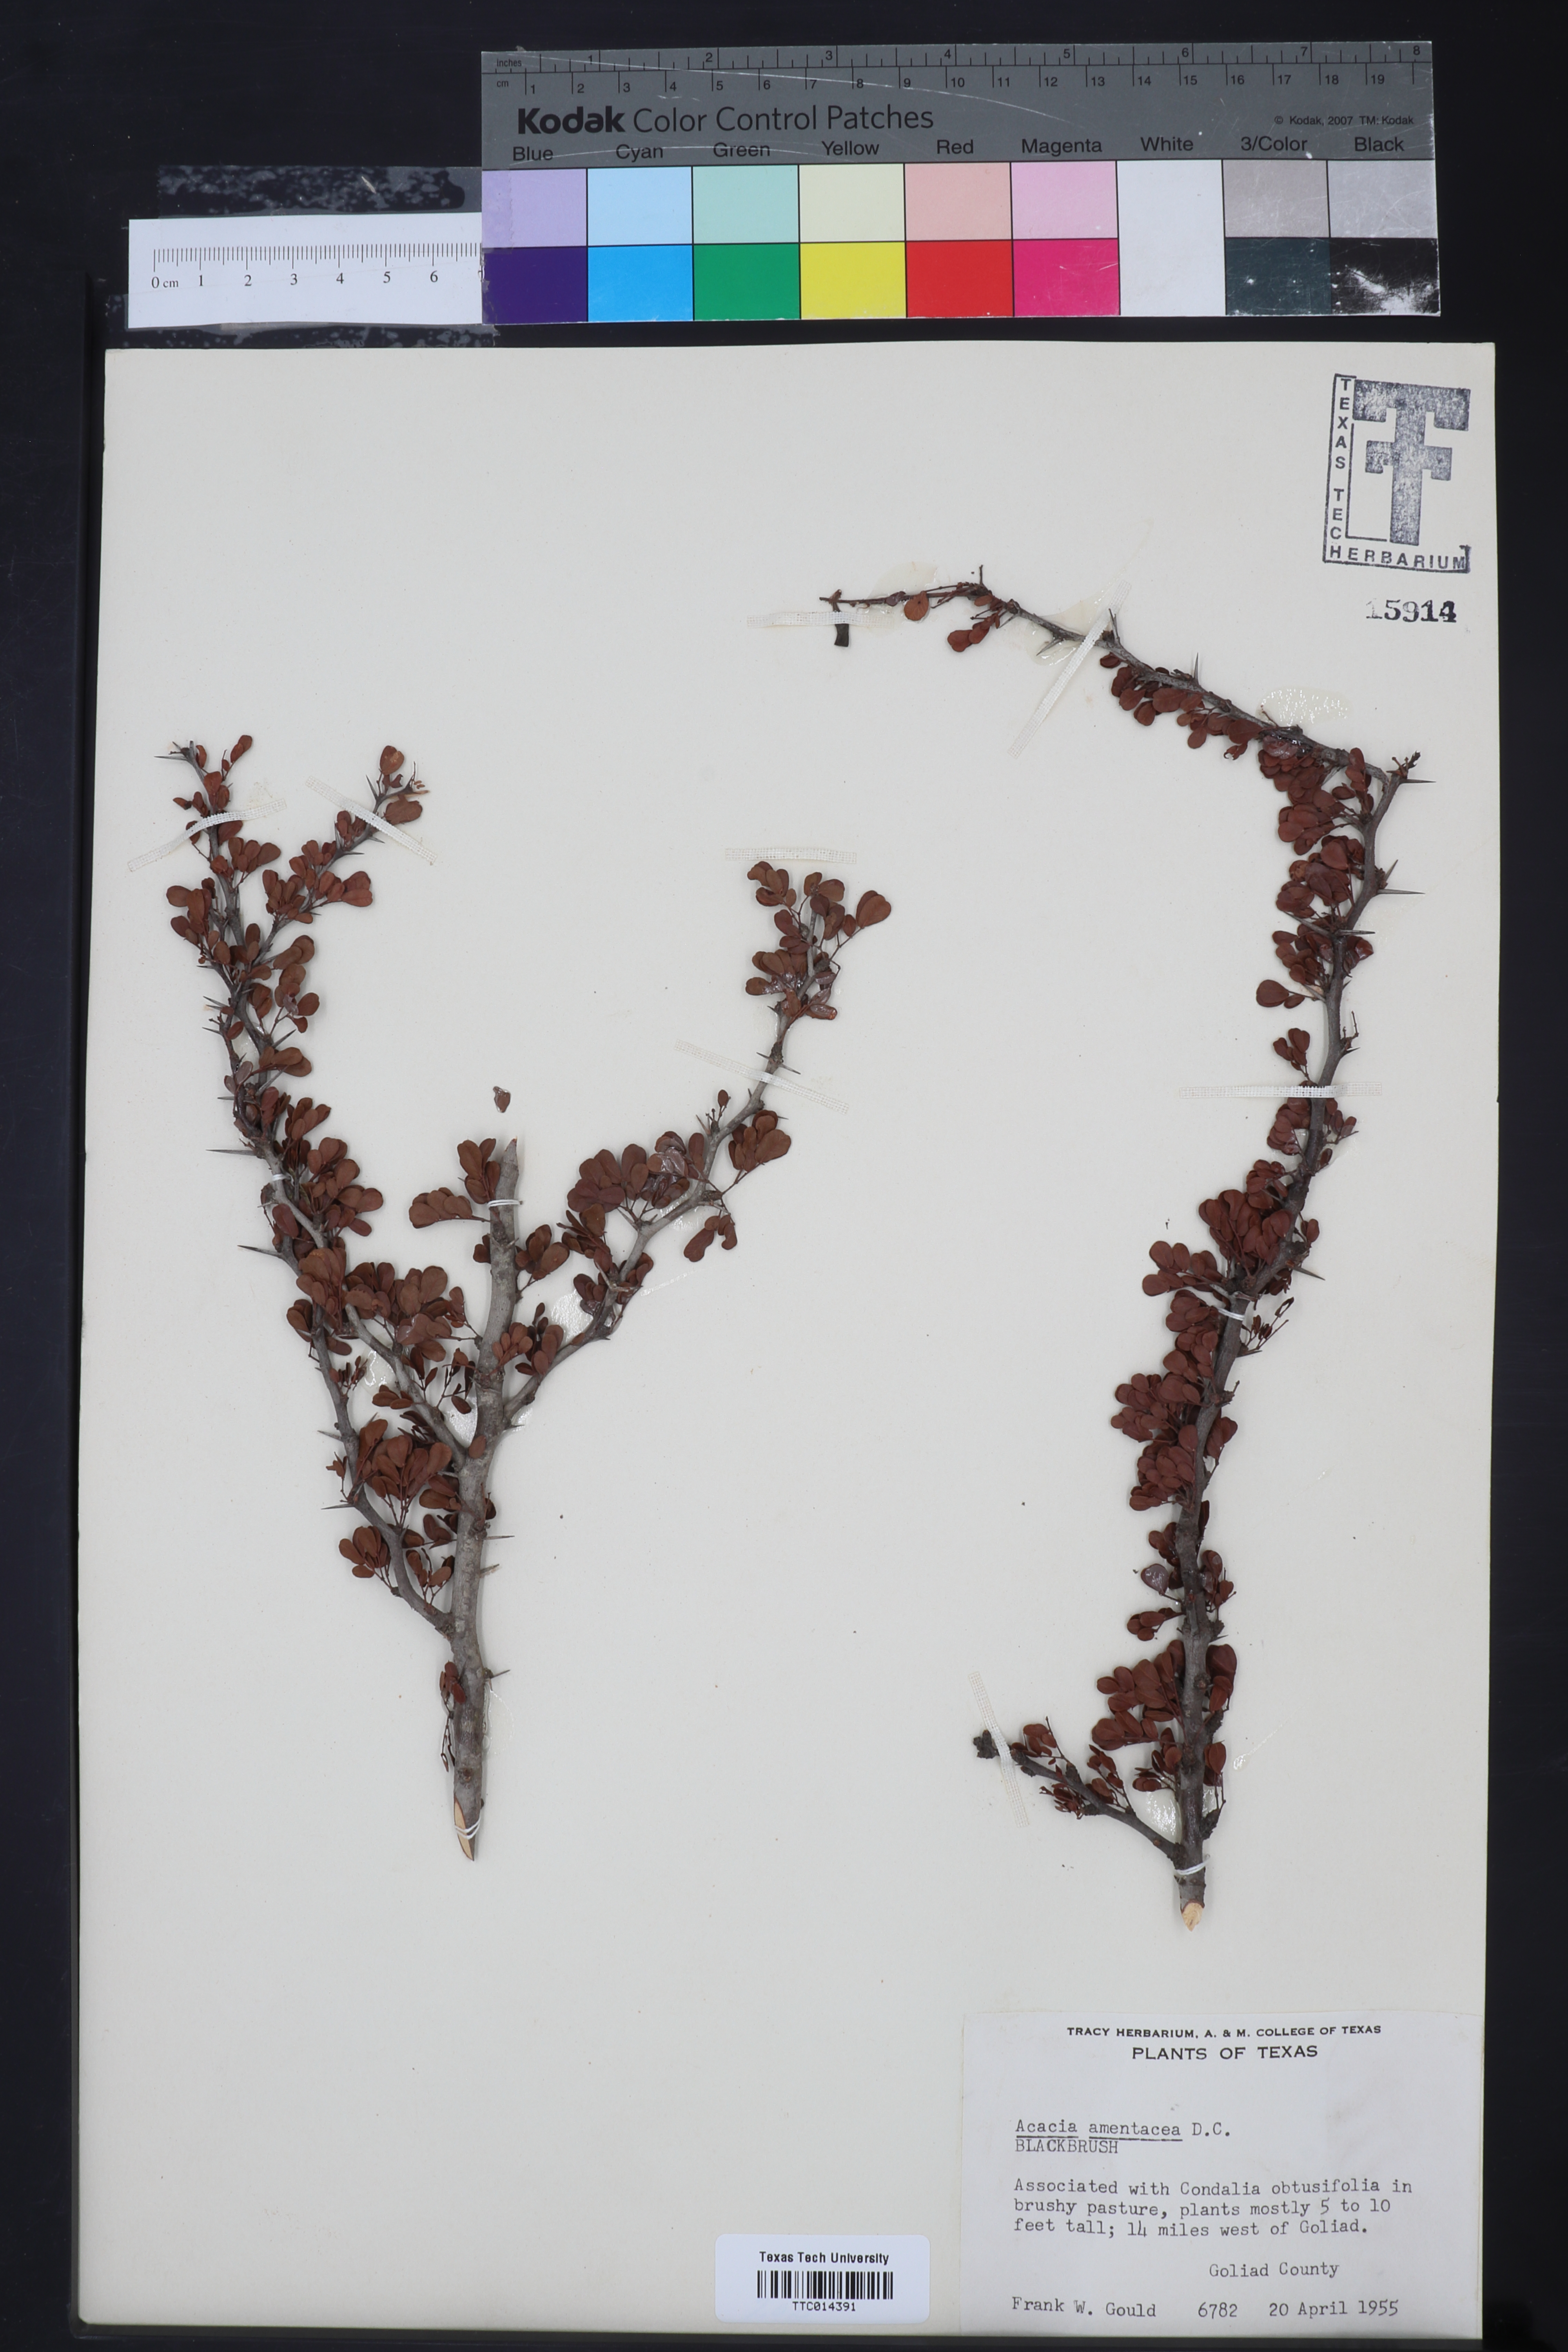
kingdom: Plantae
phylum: Tracheophyta
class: Magnoliopsida
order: Fabales
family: Fabaceae
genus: Vachellia
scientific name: Vachellia rigidula
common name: Blackbrush
